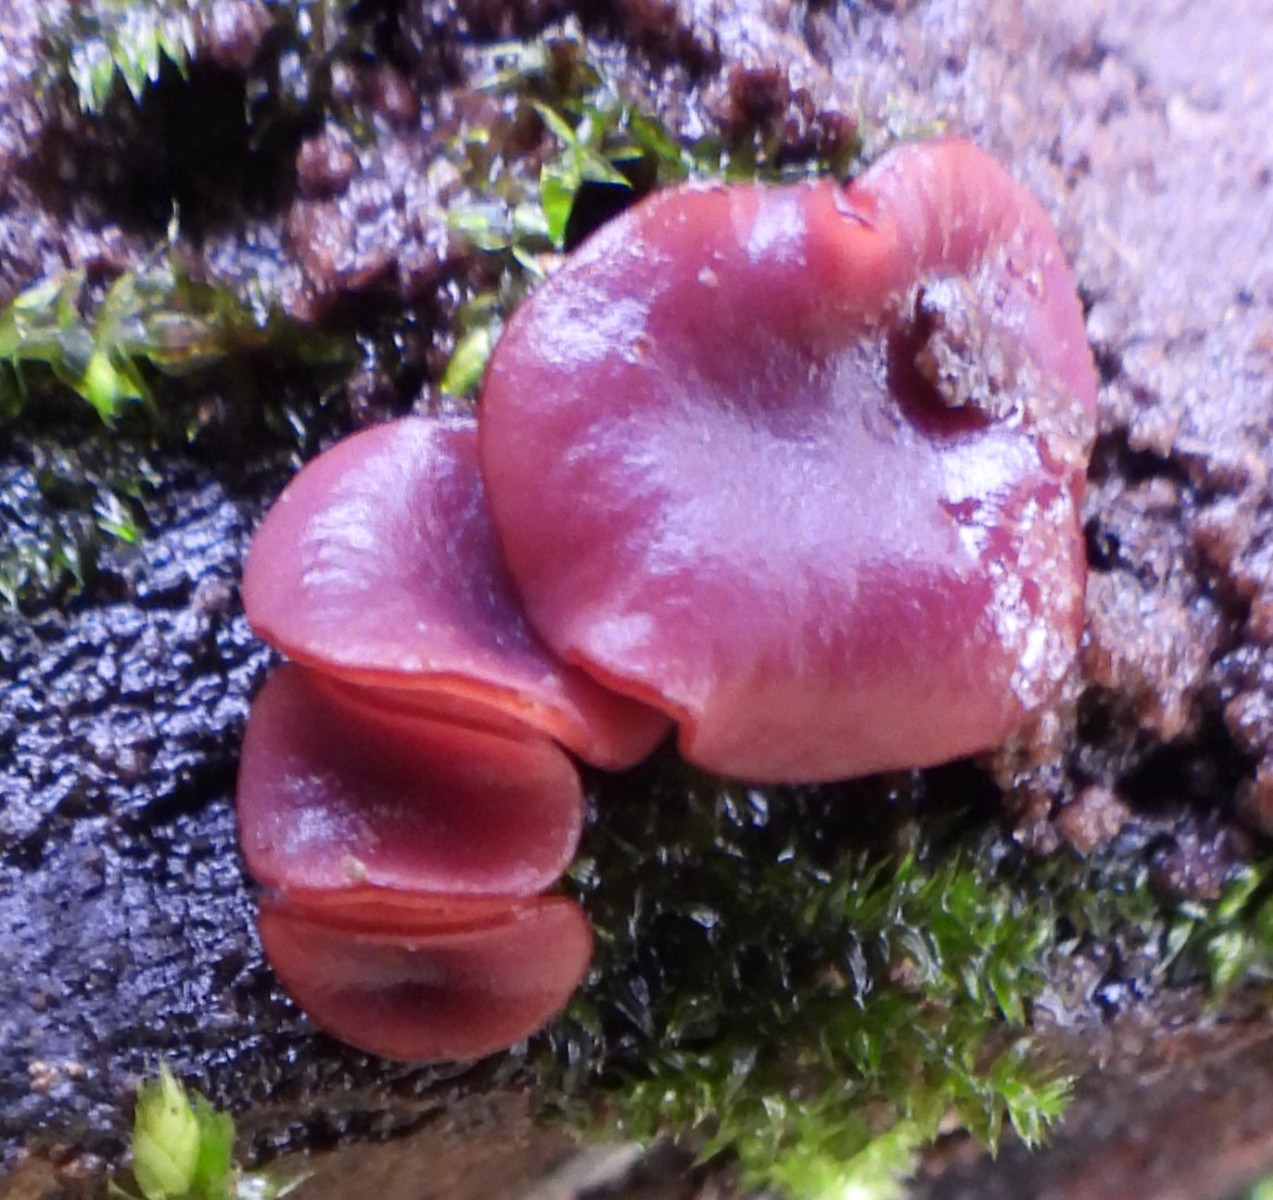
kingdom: Fungi
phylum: Ascomycota
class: Leotiomycetes
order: Helotiales
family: Gelatinodiscaceae
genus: Ascocoryne
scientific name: Ascocoryne cylichnium
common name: stor sejskive
